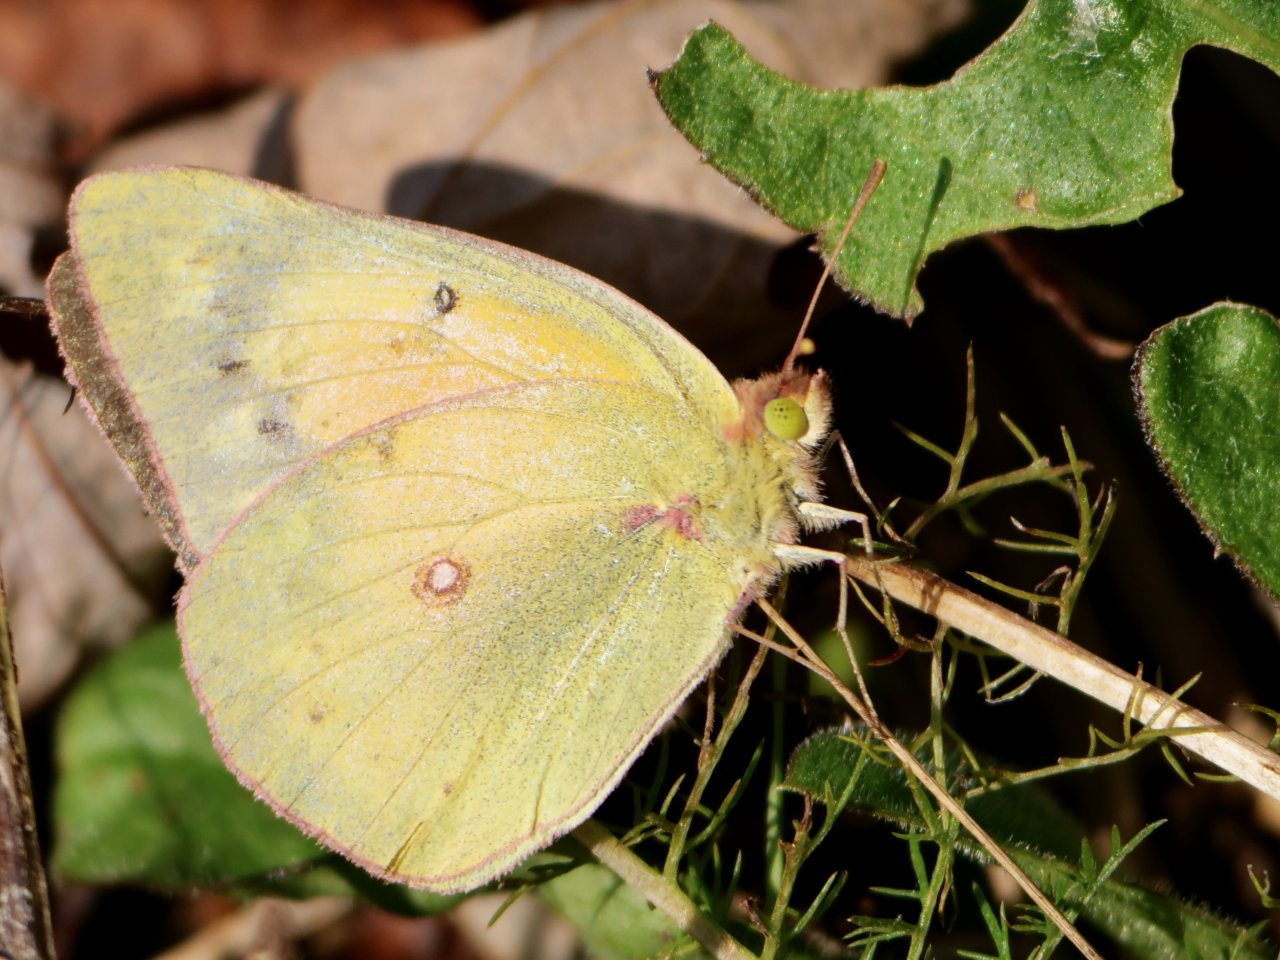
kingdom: Animalia
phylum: Arthropoda
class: Insecta
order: Lepidoptera
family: Pieridae
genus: Colias
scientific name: Colias eurytheme
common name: Orange Sulphur
